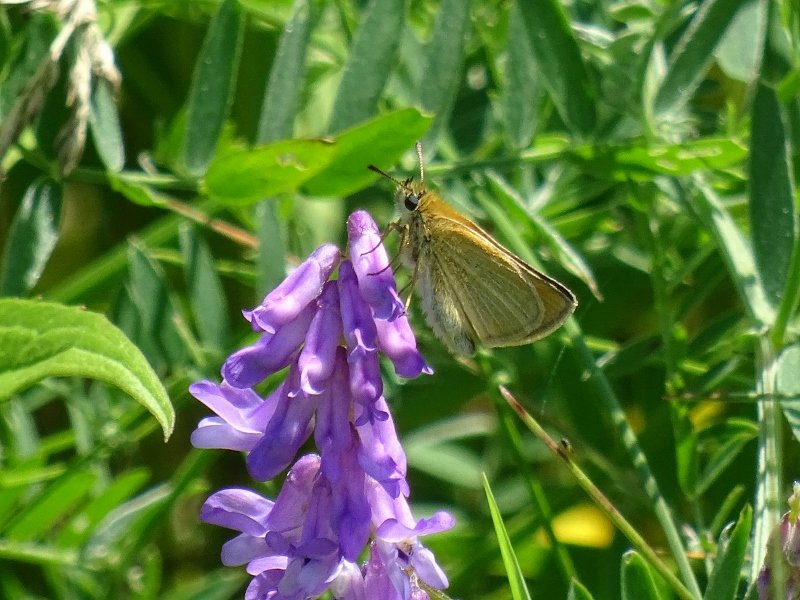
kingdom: Animalia
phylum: Arthropoda
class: Insecta
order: Lepidoptera
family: Hesperiidae
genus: Thymelicus
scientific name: Thymelicus lineola
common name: European Skipper
